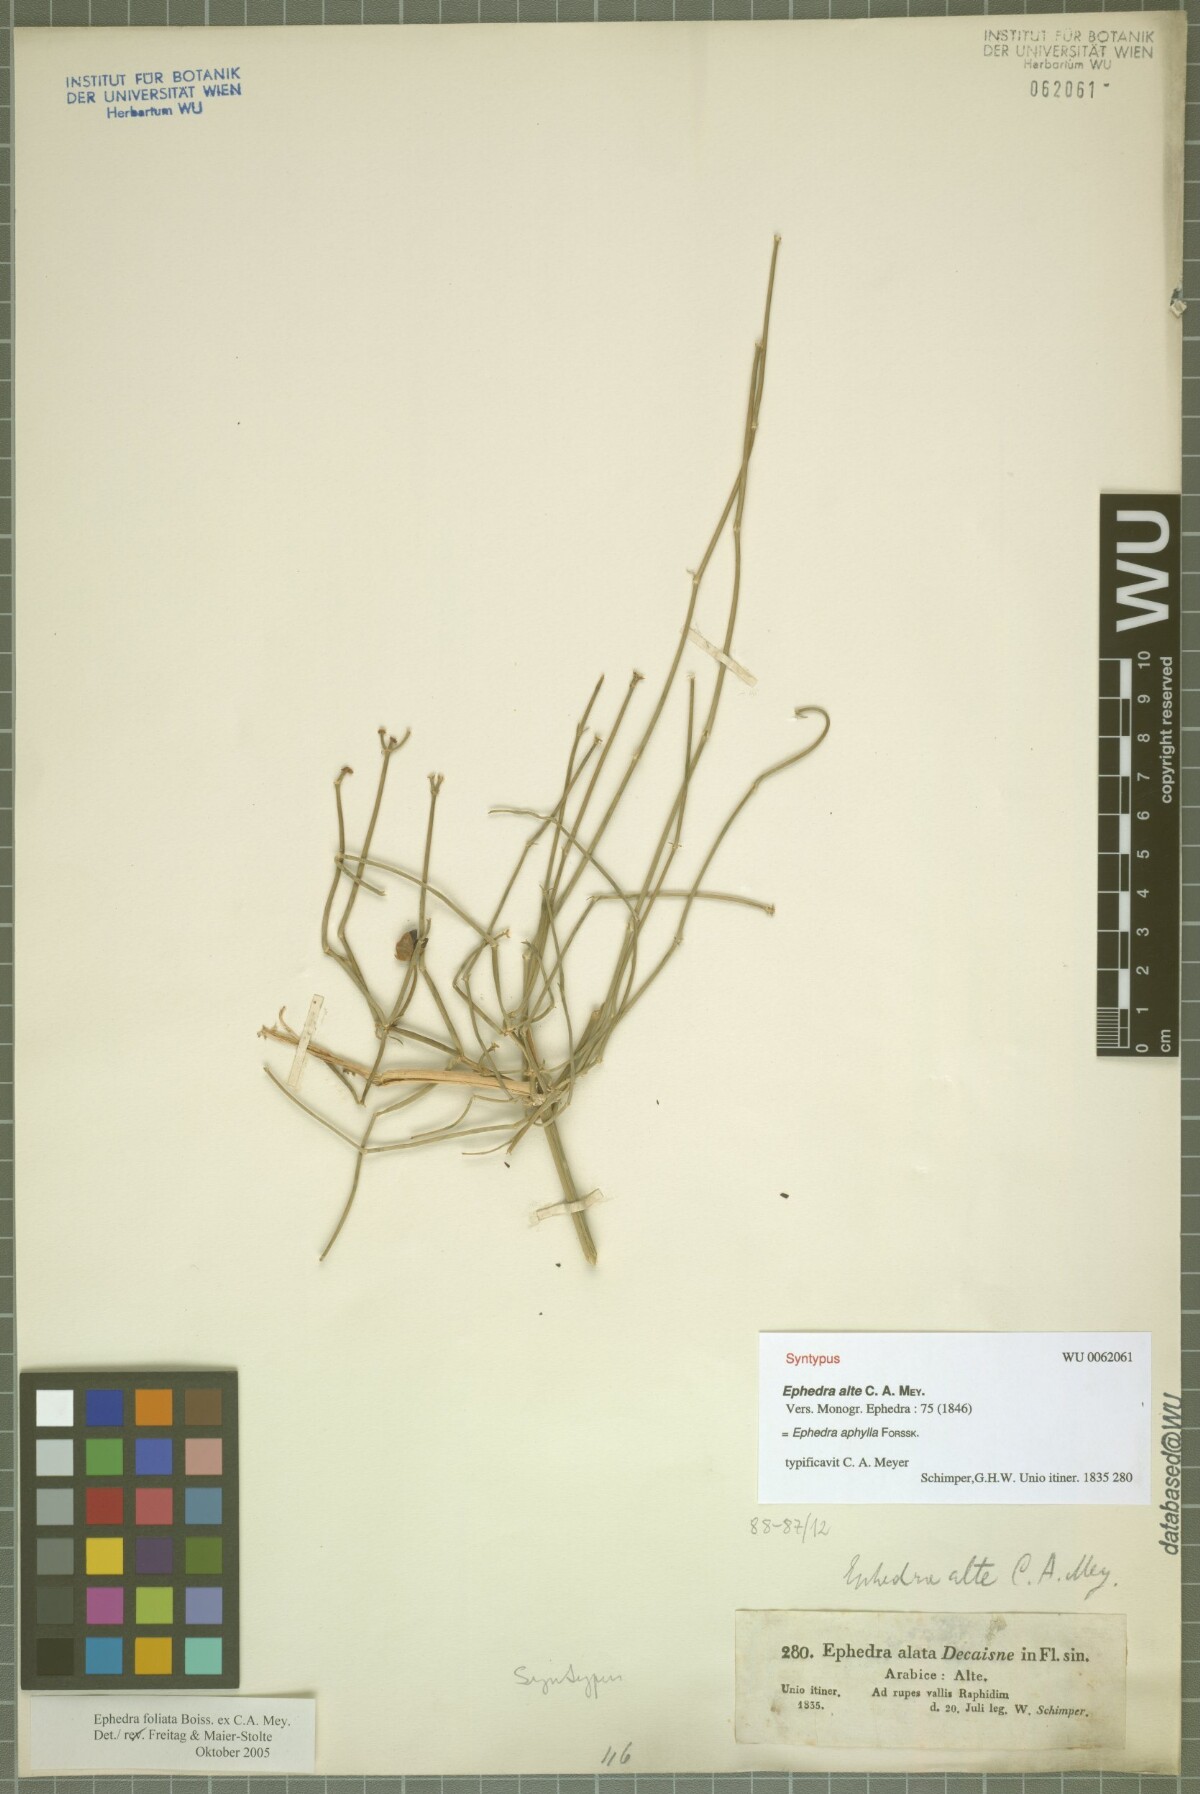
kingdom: Plantae
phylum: Tracheophyta
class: Gnetopsida
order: Ephedrales
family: Ephedraceae
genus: Ephedra
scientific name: Ephedra ciliata
